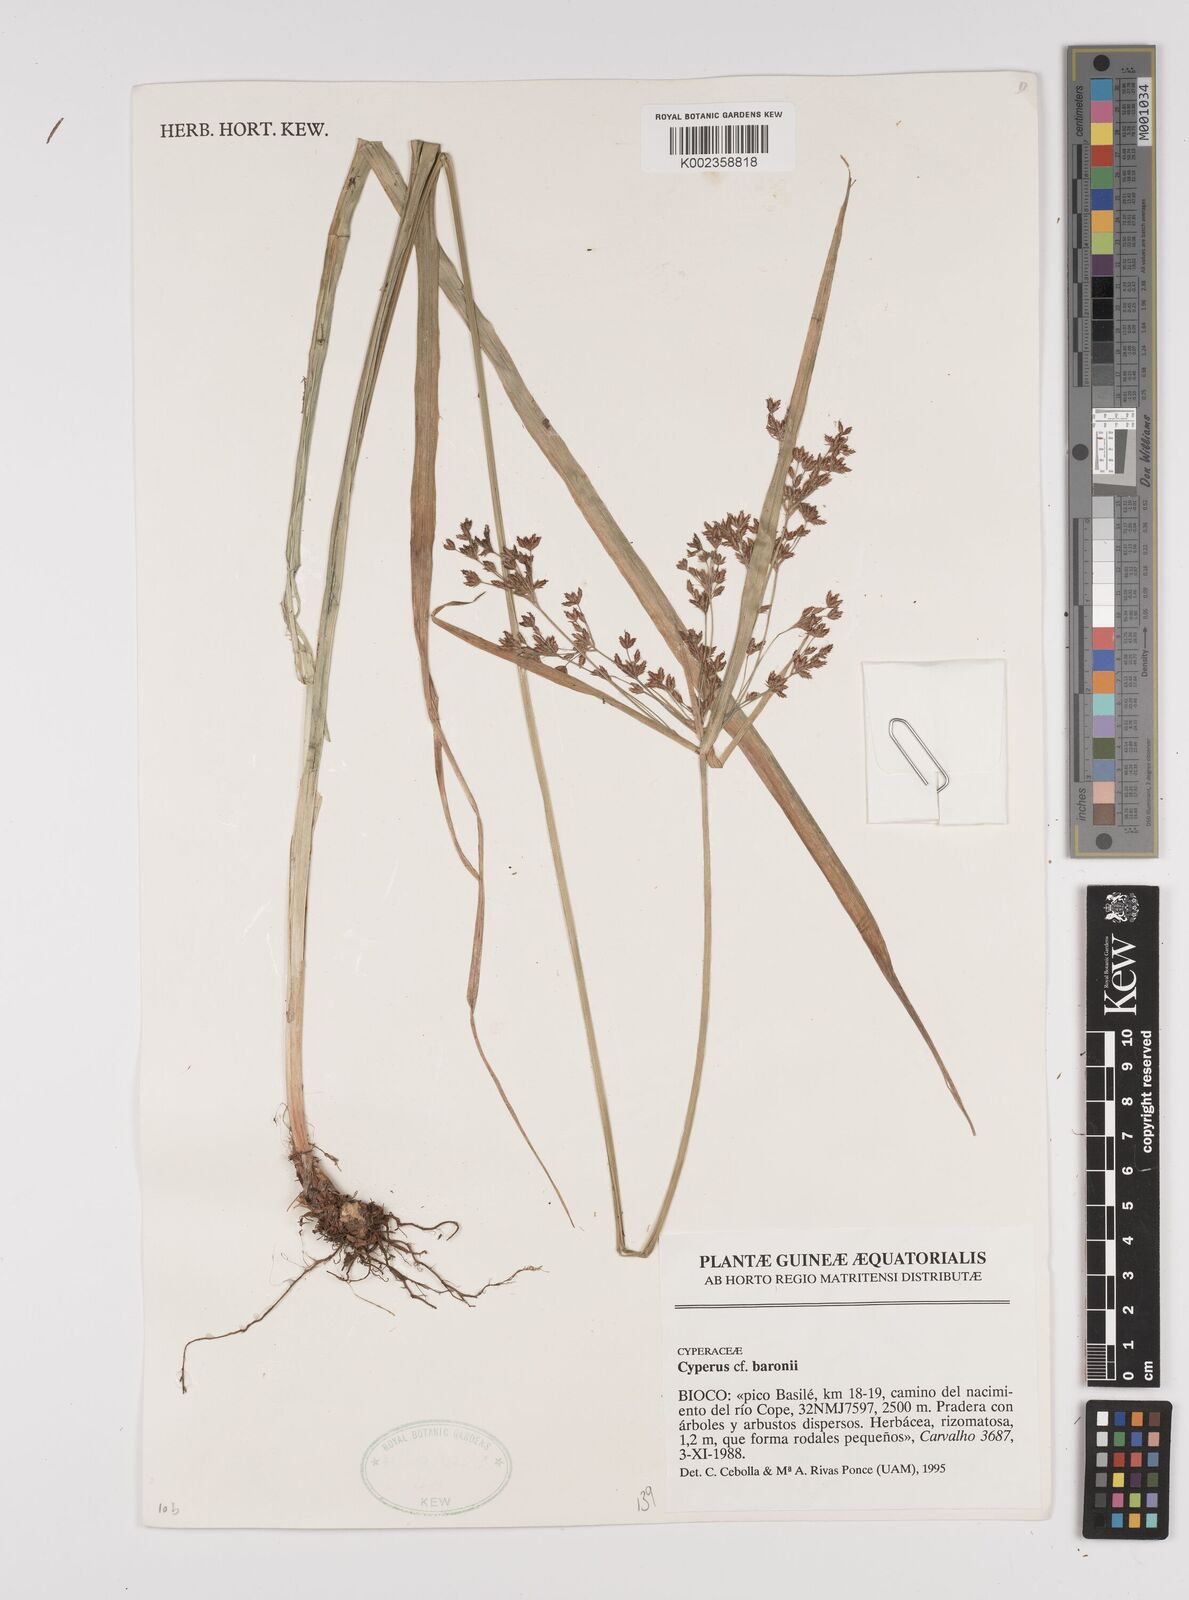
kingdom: Plantae
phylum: Tracheophyta
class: Liliopsida
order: Poales
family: Cyperaceae
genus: Cyperus
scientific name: Cyperus baronii
